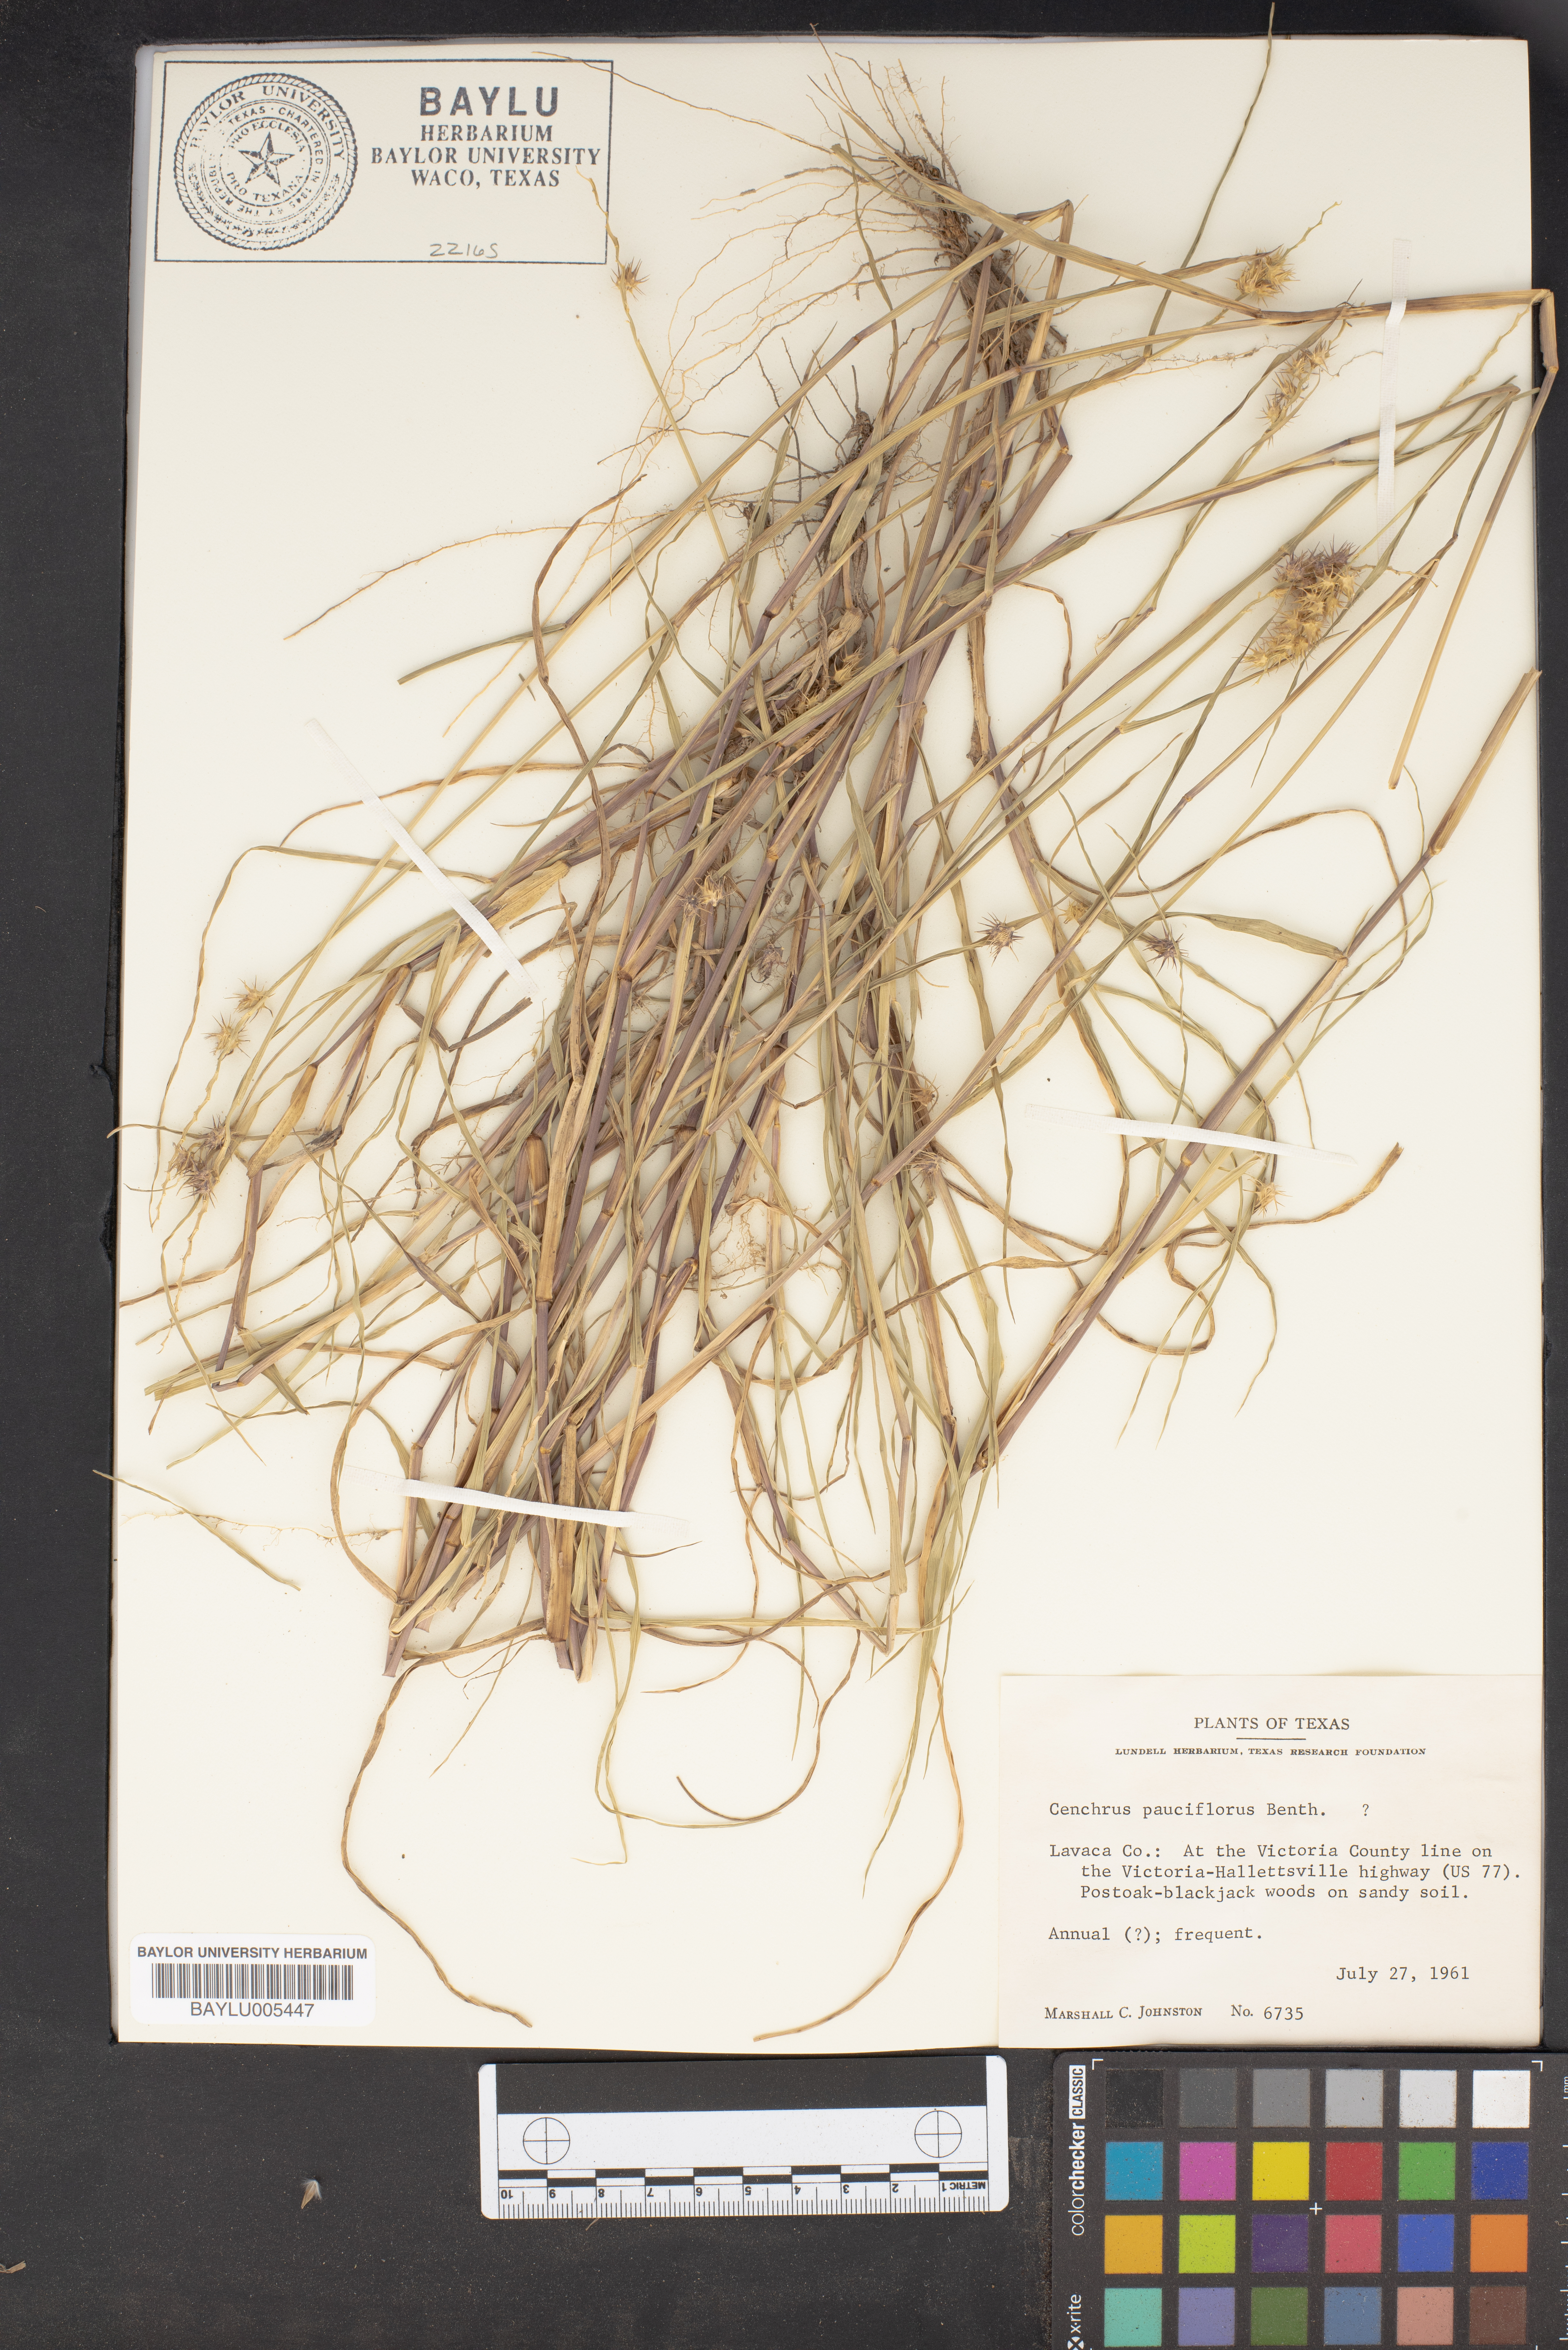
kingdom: Plantae
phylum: Tracheophyta
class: Liliopsida
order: Poales
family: Poaceae
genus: Cenchrus
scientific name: Cenchrus spinifex
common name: Coast sandbur
